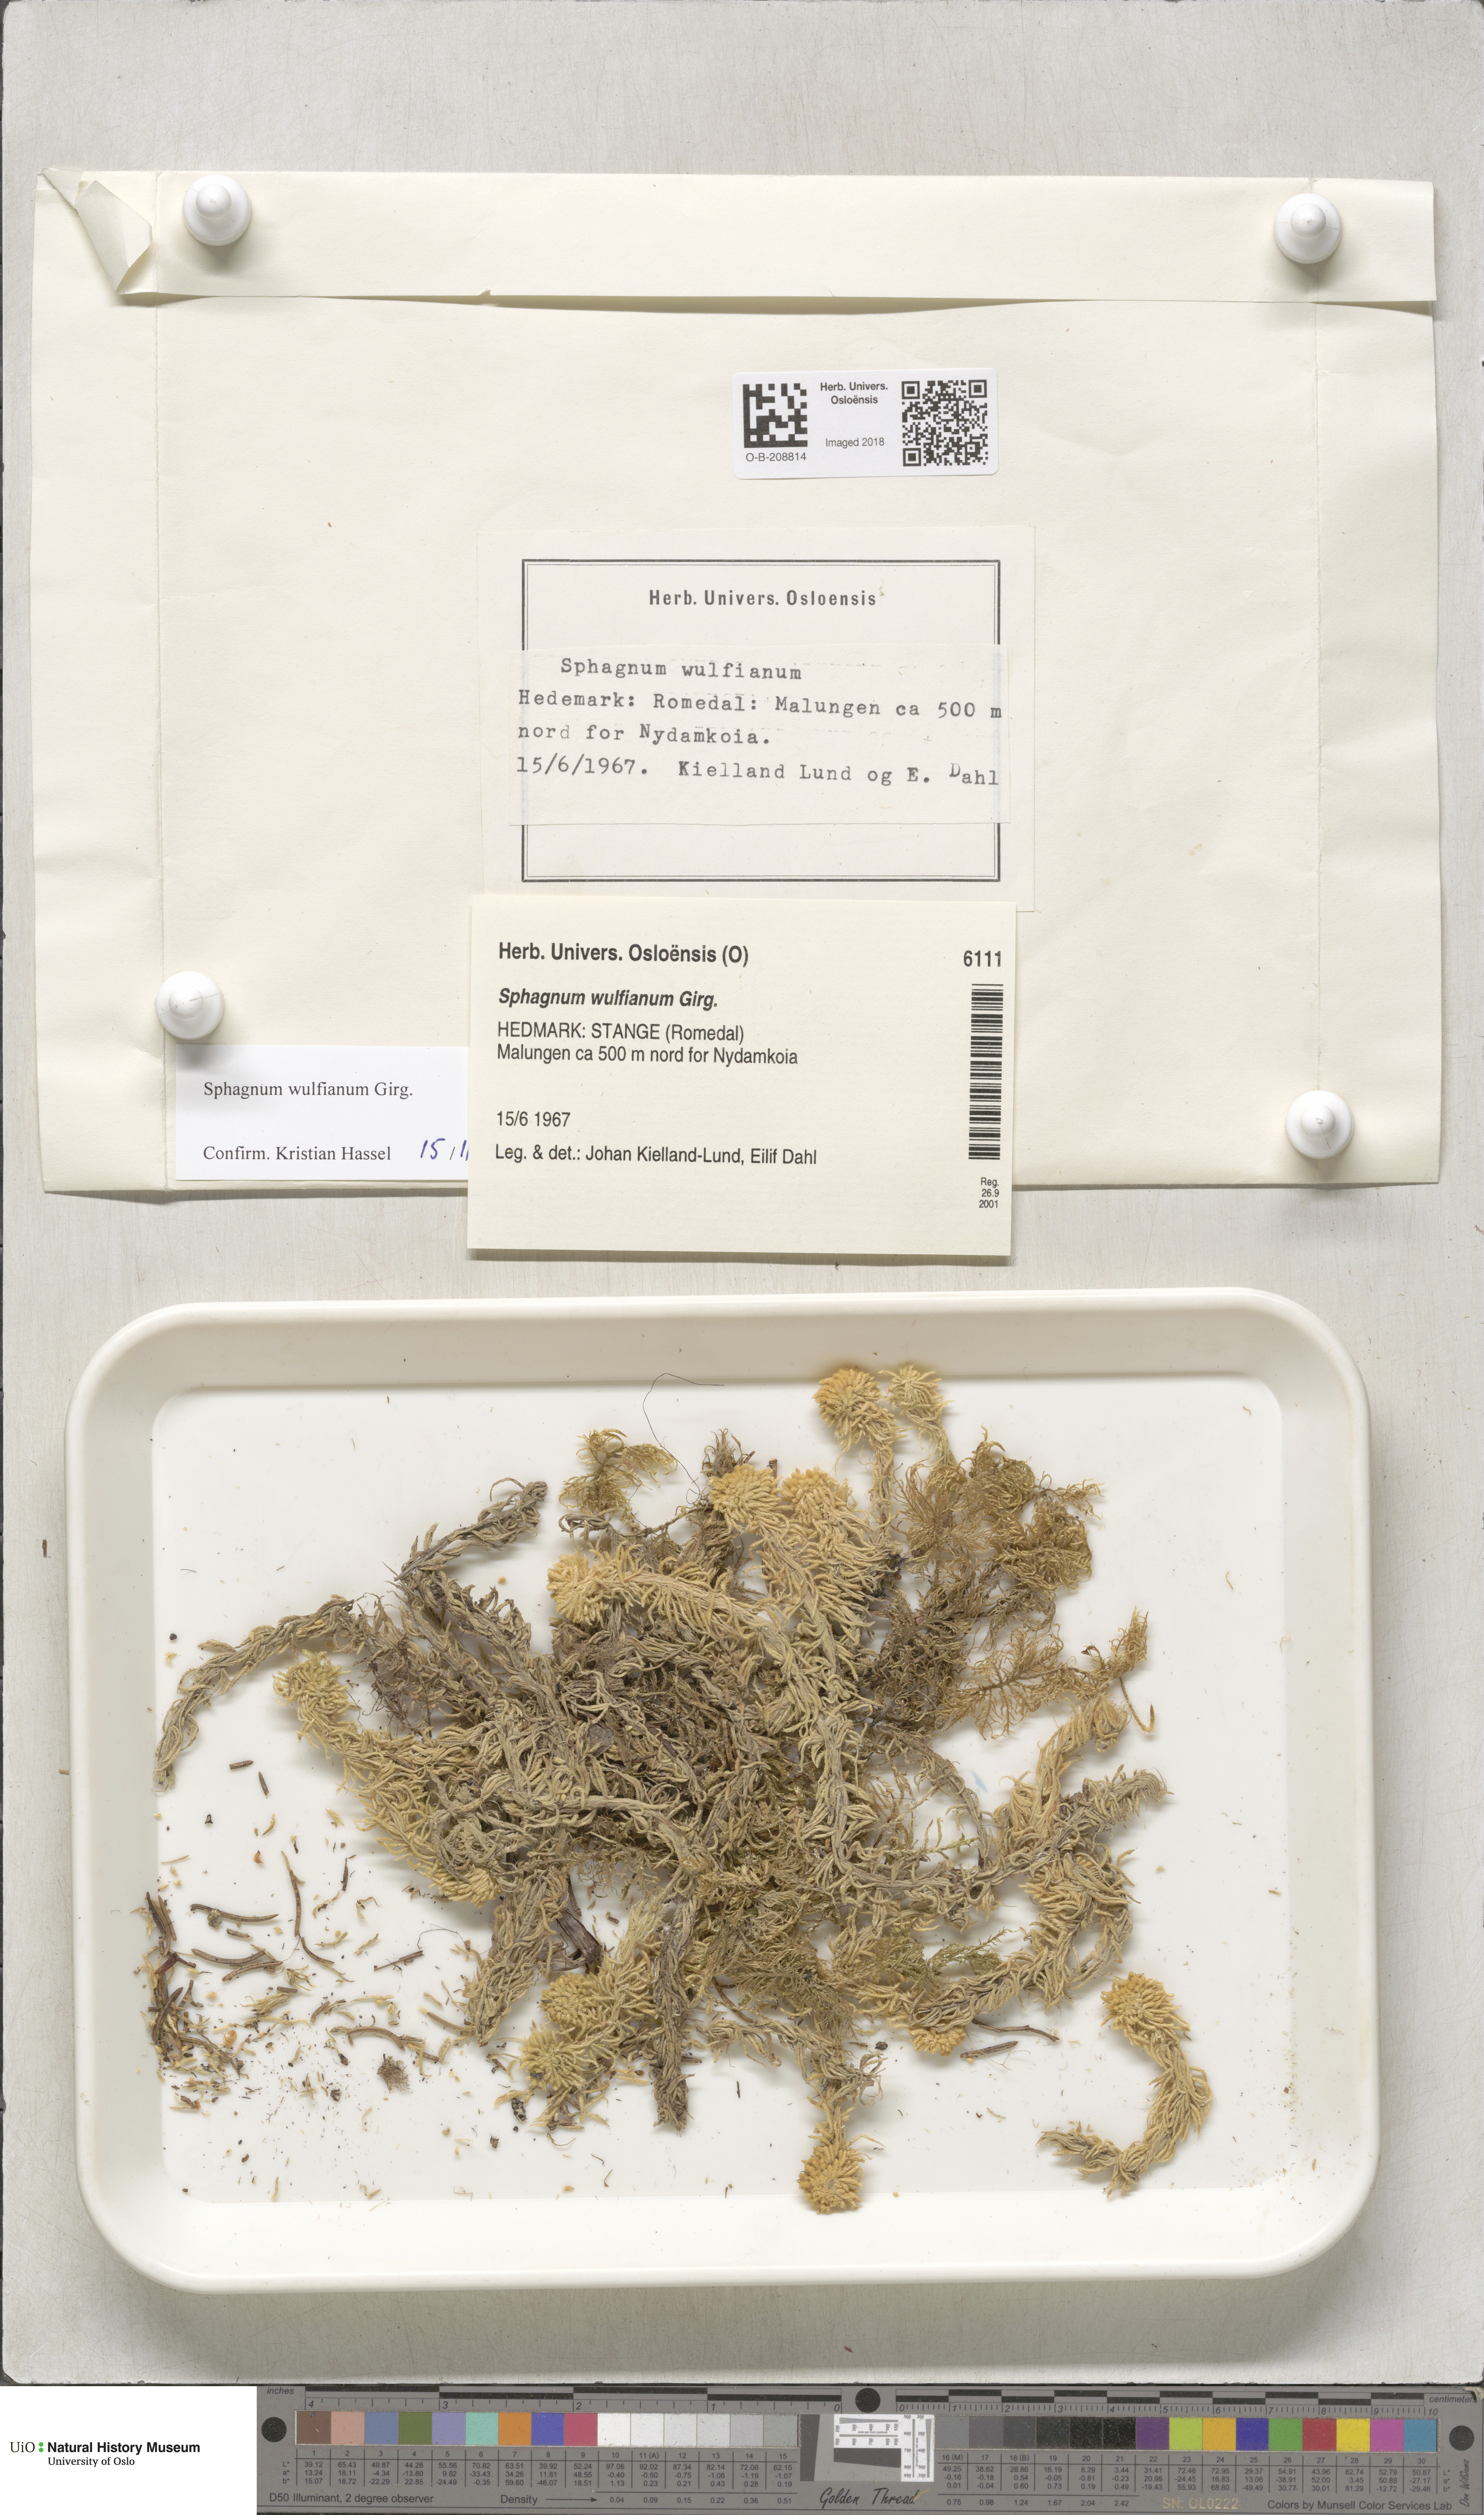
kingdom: Plantae
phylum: Bryophyta
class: Sphagnopsida
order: Sphagnales
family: Sphagnaceae
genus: Sphagnum
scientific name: Sphagnum wulfianum
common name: Wulf's peat moss
